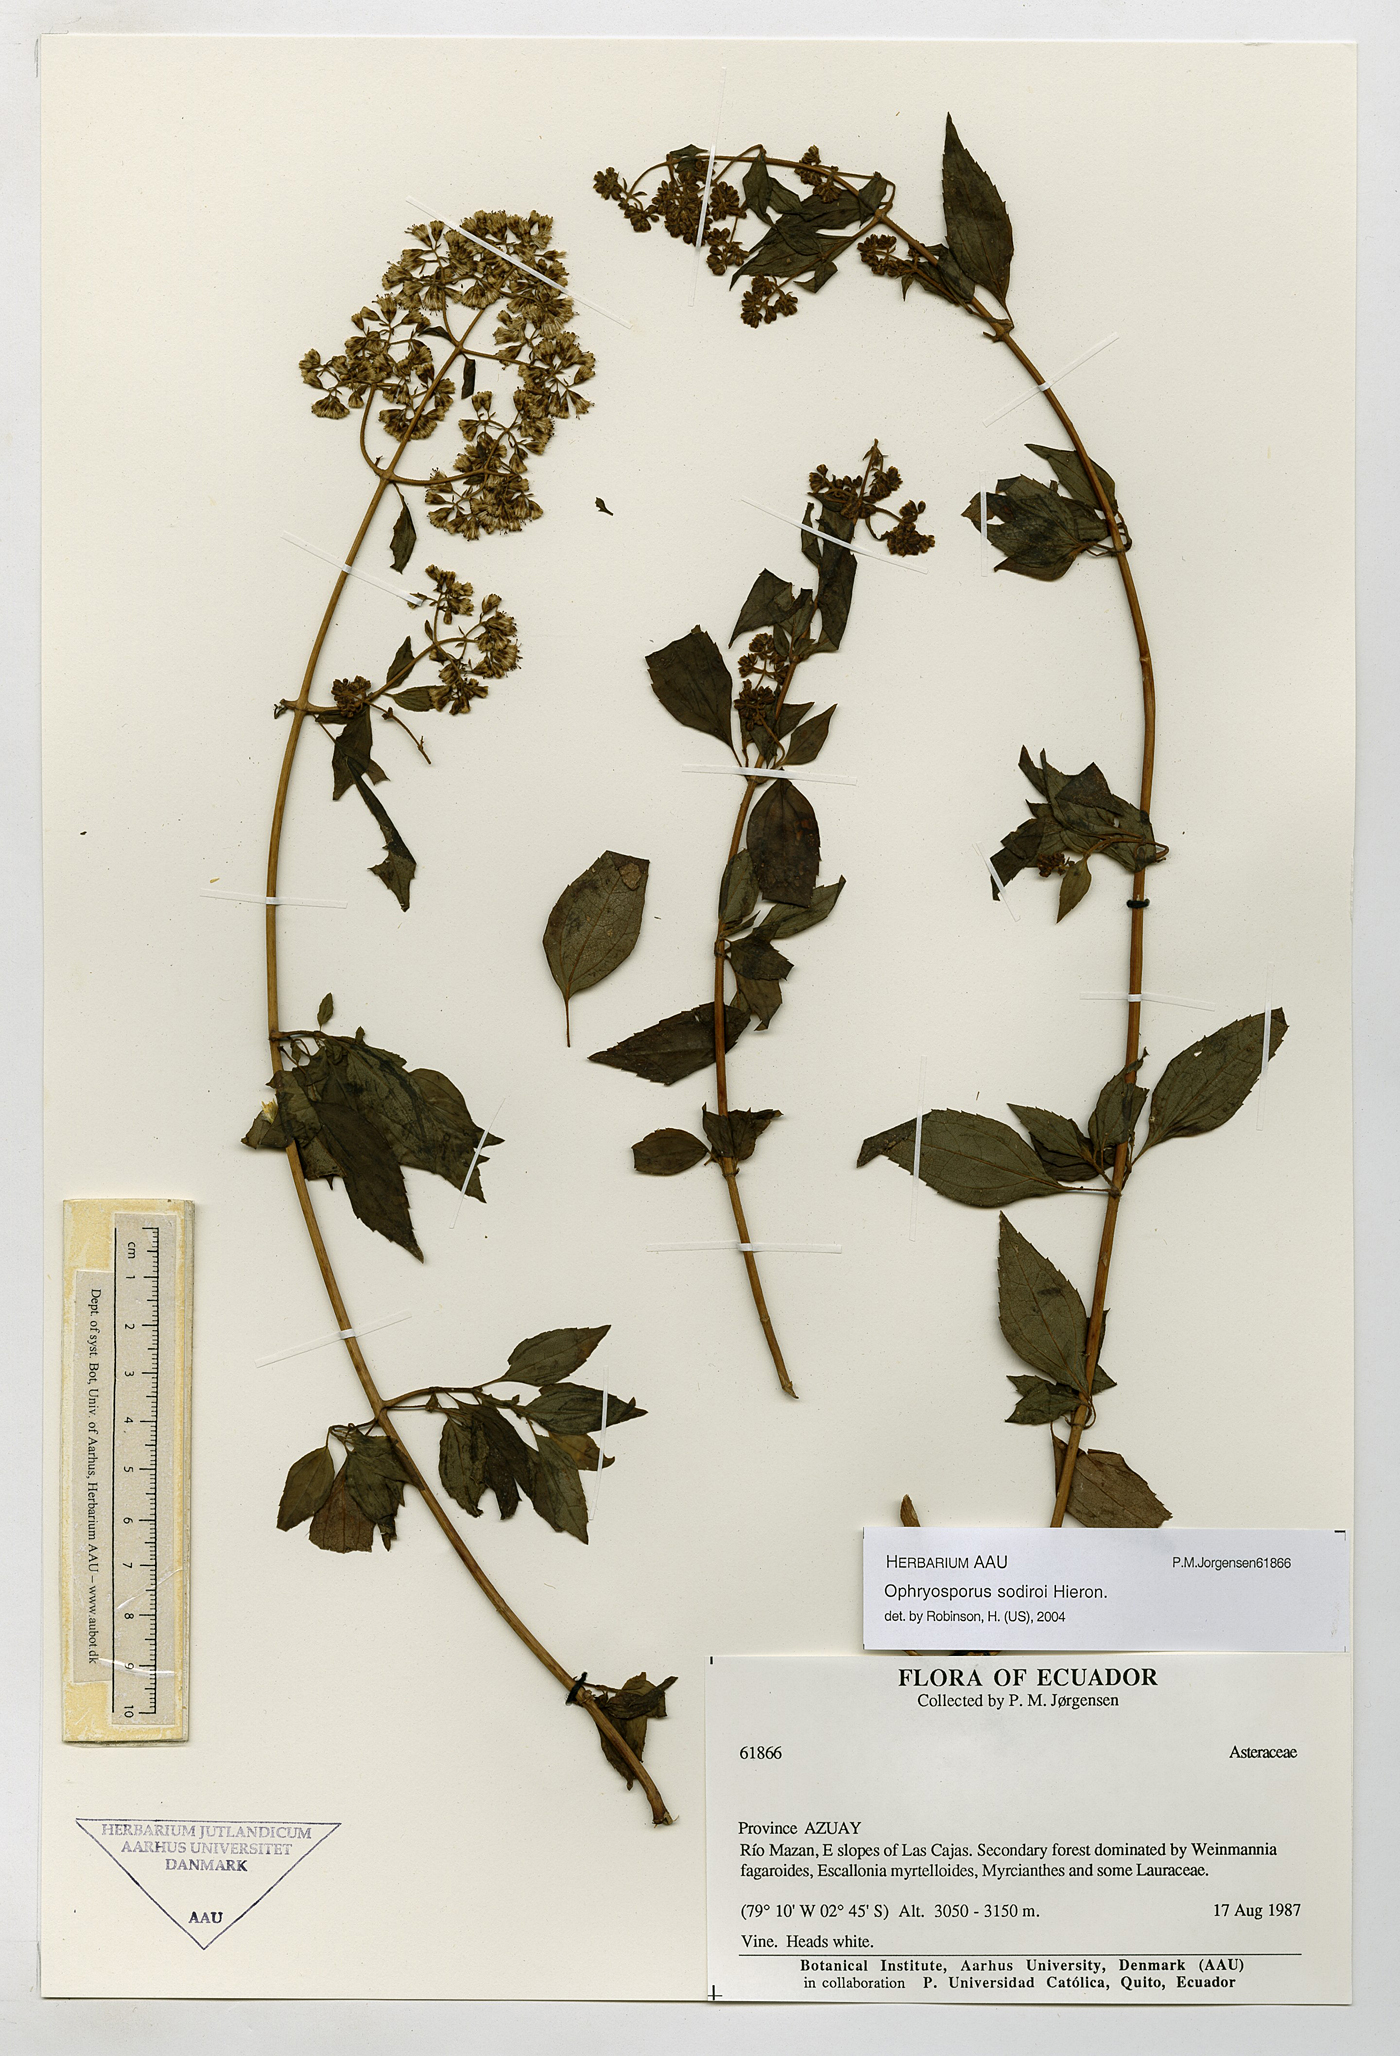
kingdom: Plantae
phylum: Tracheophyta
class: Magnoliopsida
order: Asterales
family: Asteraceae
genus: Ophryosporus
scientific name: Ophryosporus sodiroi
